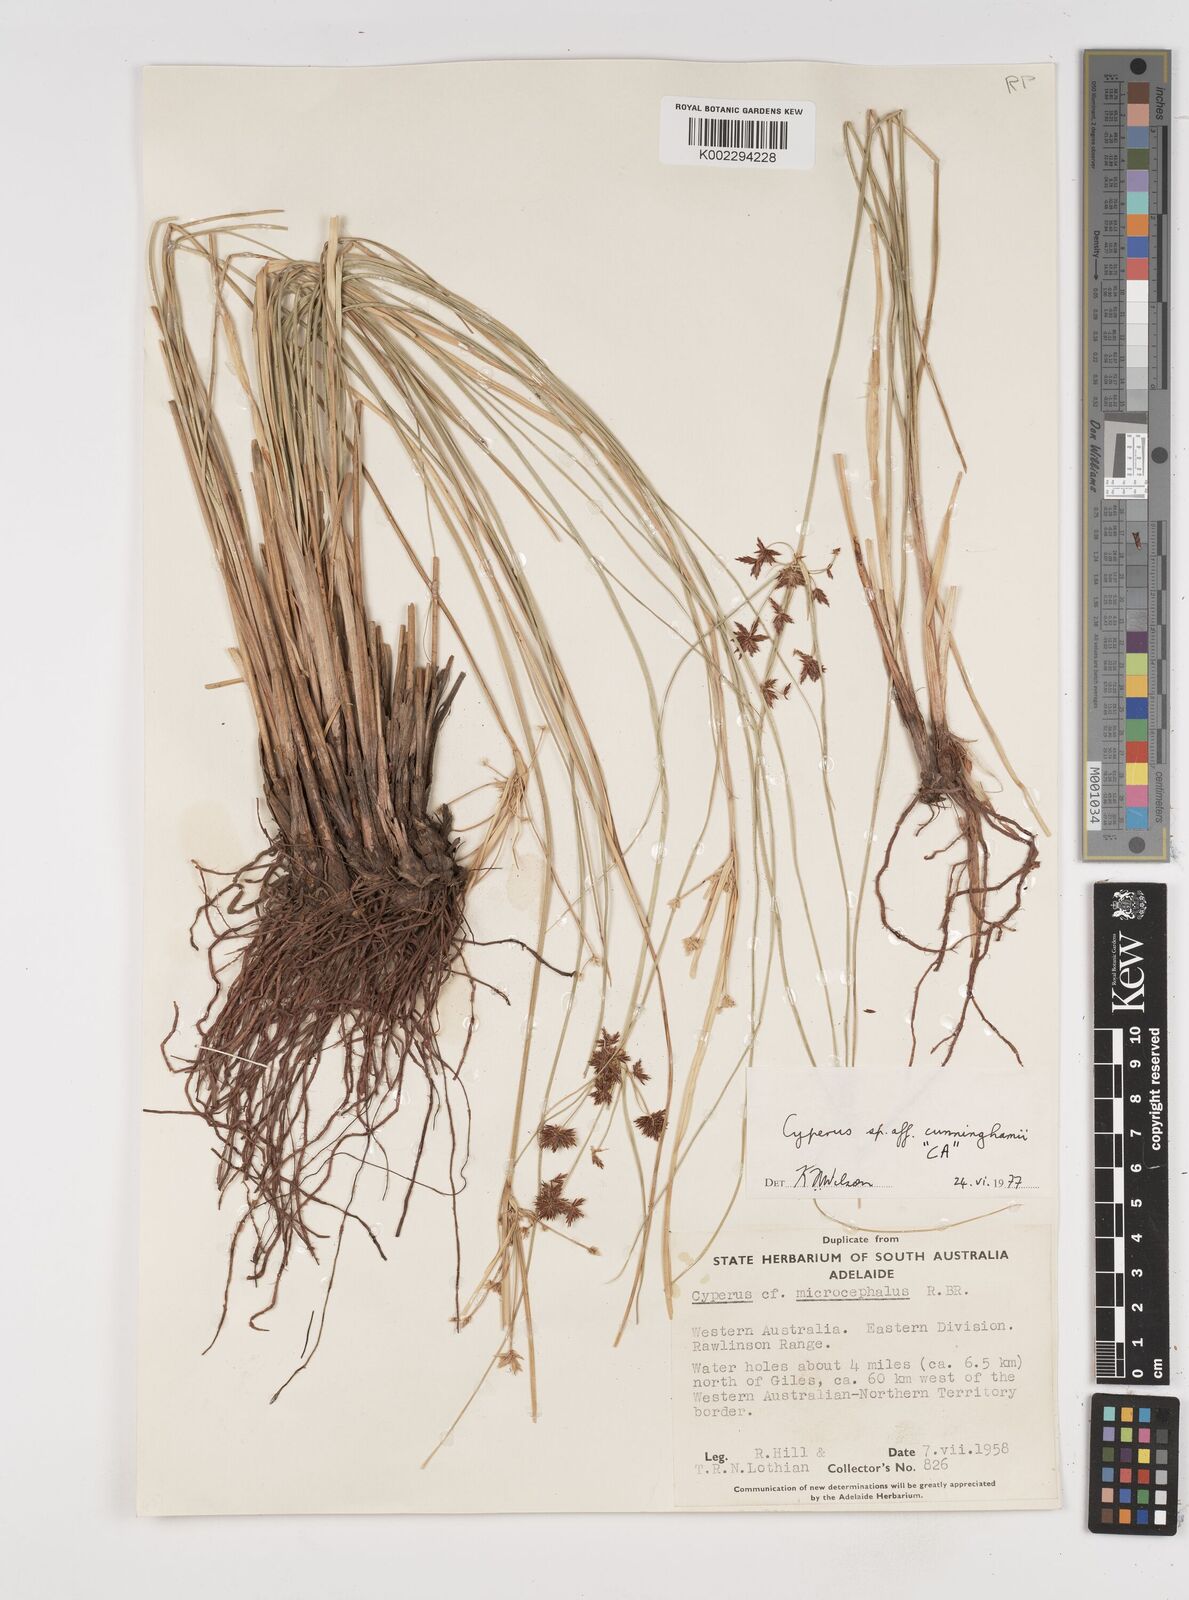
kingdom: Plantae
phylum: Tracheophyta
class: Liliopsida
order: Poales
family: Cyperaceae
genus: Cyperus
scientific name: Cyperus cunninghamii
